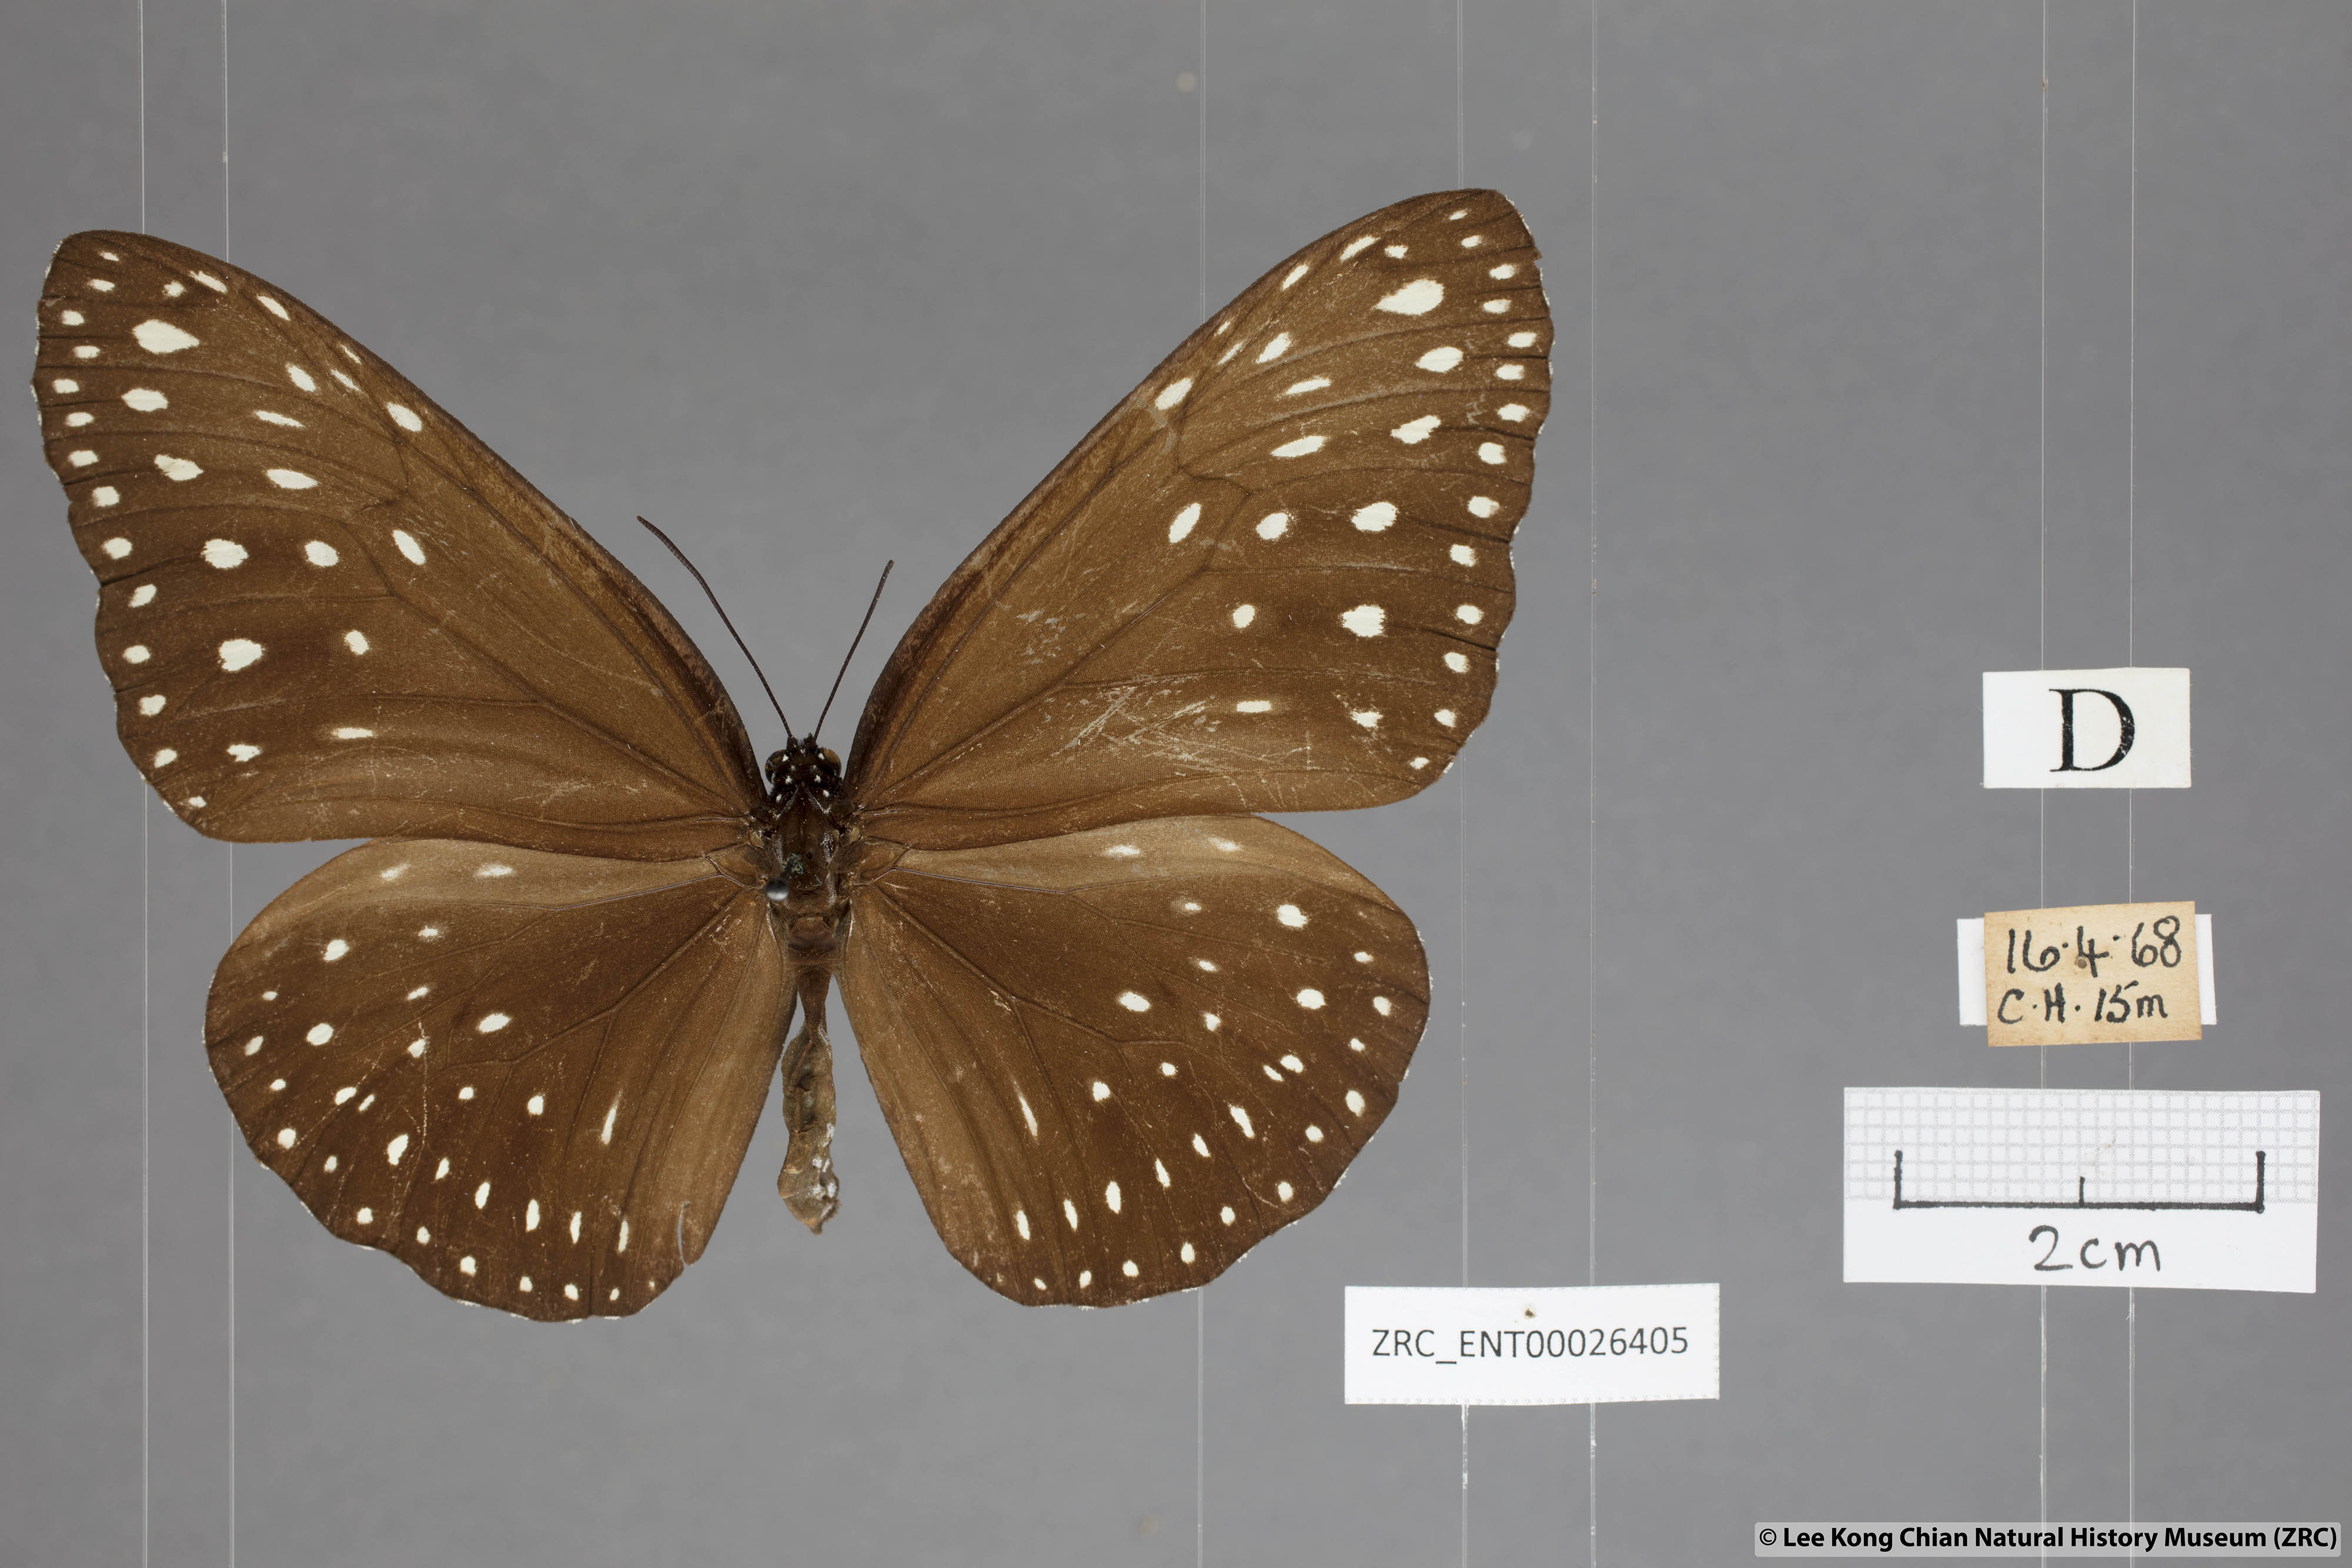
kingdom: Animalia
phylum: Arthropoda
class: Insecta
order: Lepidoptera
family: Nymphalidae
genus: Euploea
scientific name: Euploea camaralzeman
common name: Malayan crow butterfly
